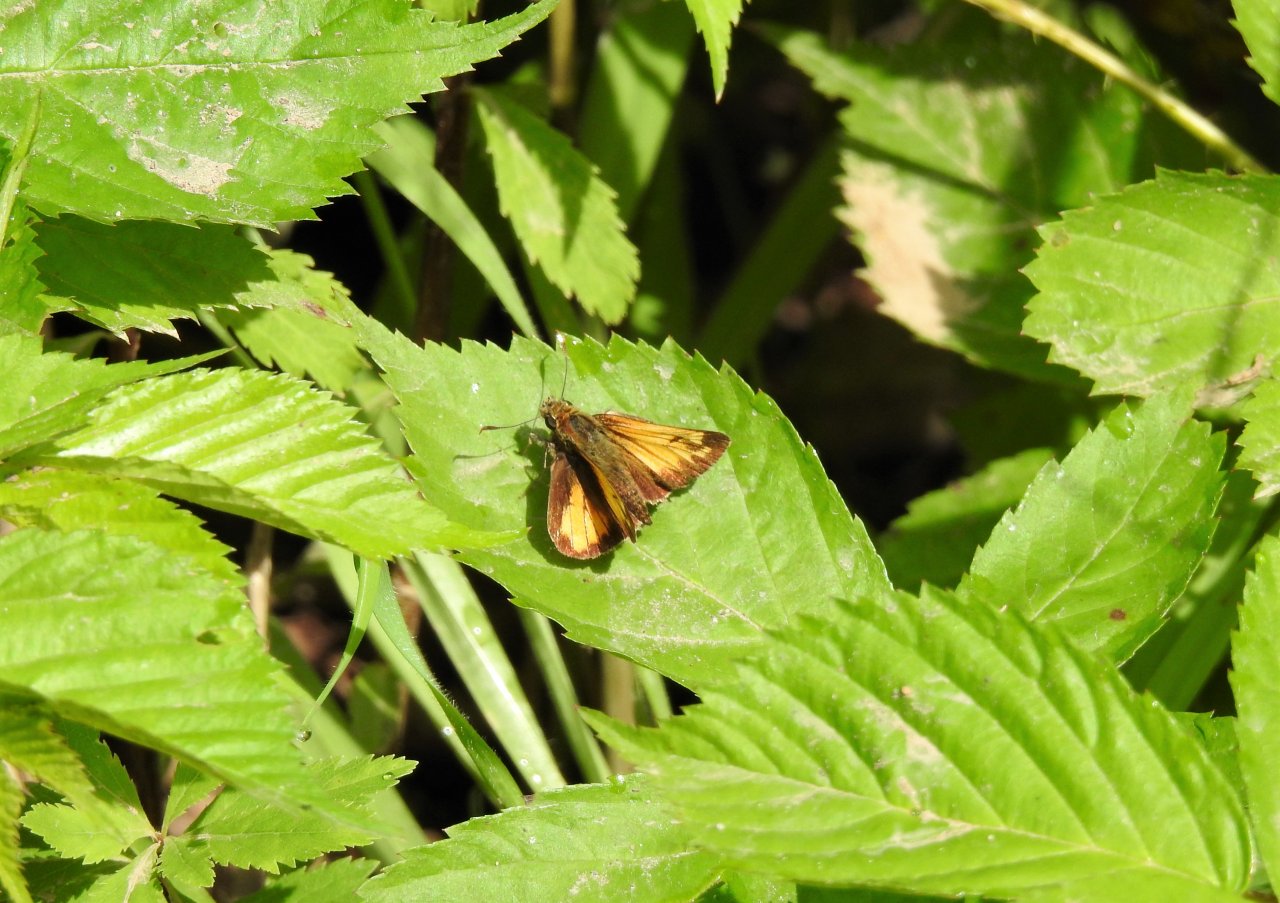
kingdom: Animalia
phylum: Arthropoda
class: Insecta
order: Lepidoptera
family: Hesperiidae
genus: Lon
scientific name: Lon hobomok
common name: Hobomok Skipper
